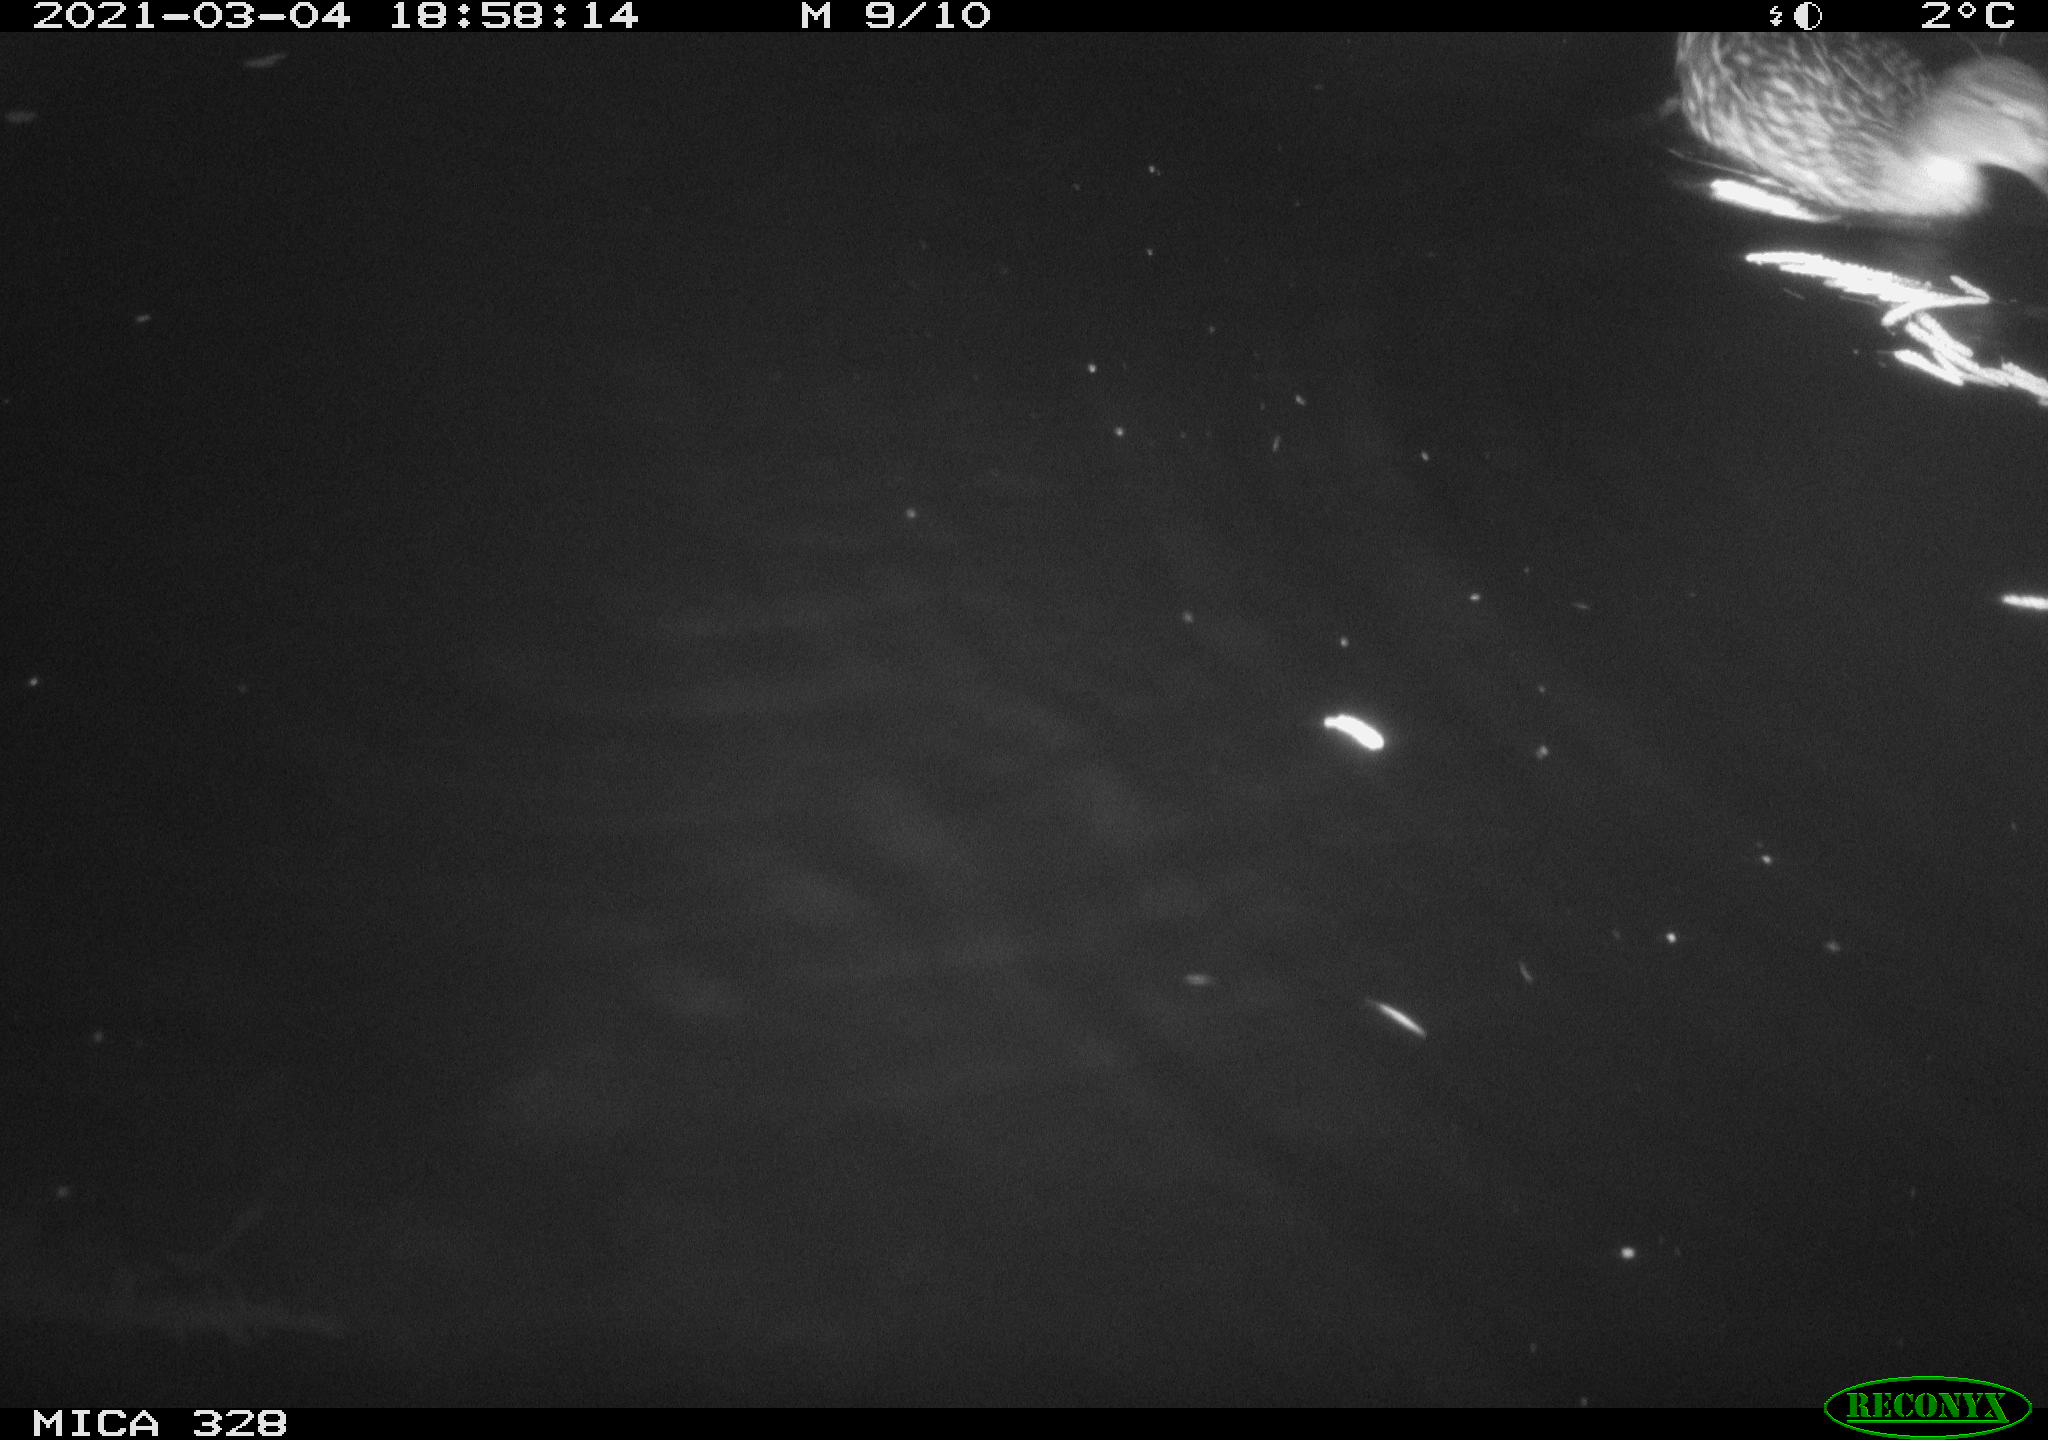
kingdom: Animalia
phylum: Chordata
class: Mammalia
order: Rodentia
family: Cricetidae
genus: Ondatra
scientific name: Ondatra zibethicus
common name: Muskrat
